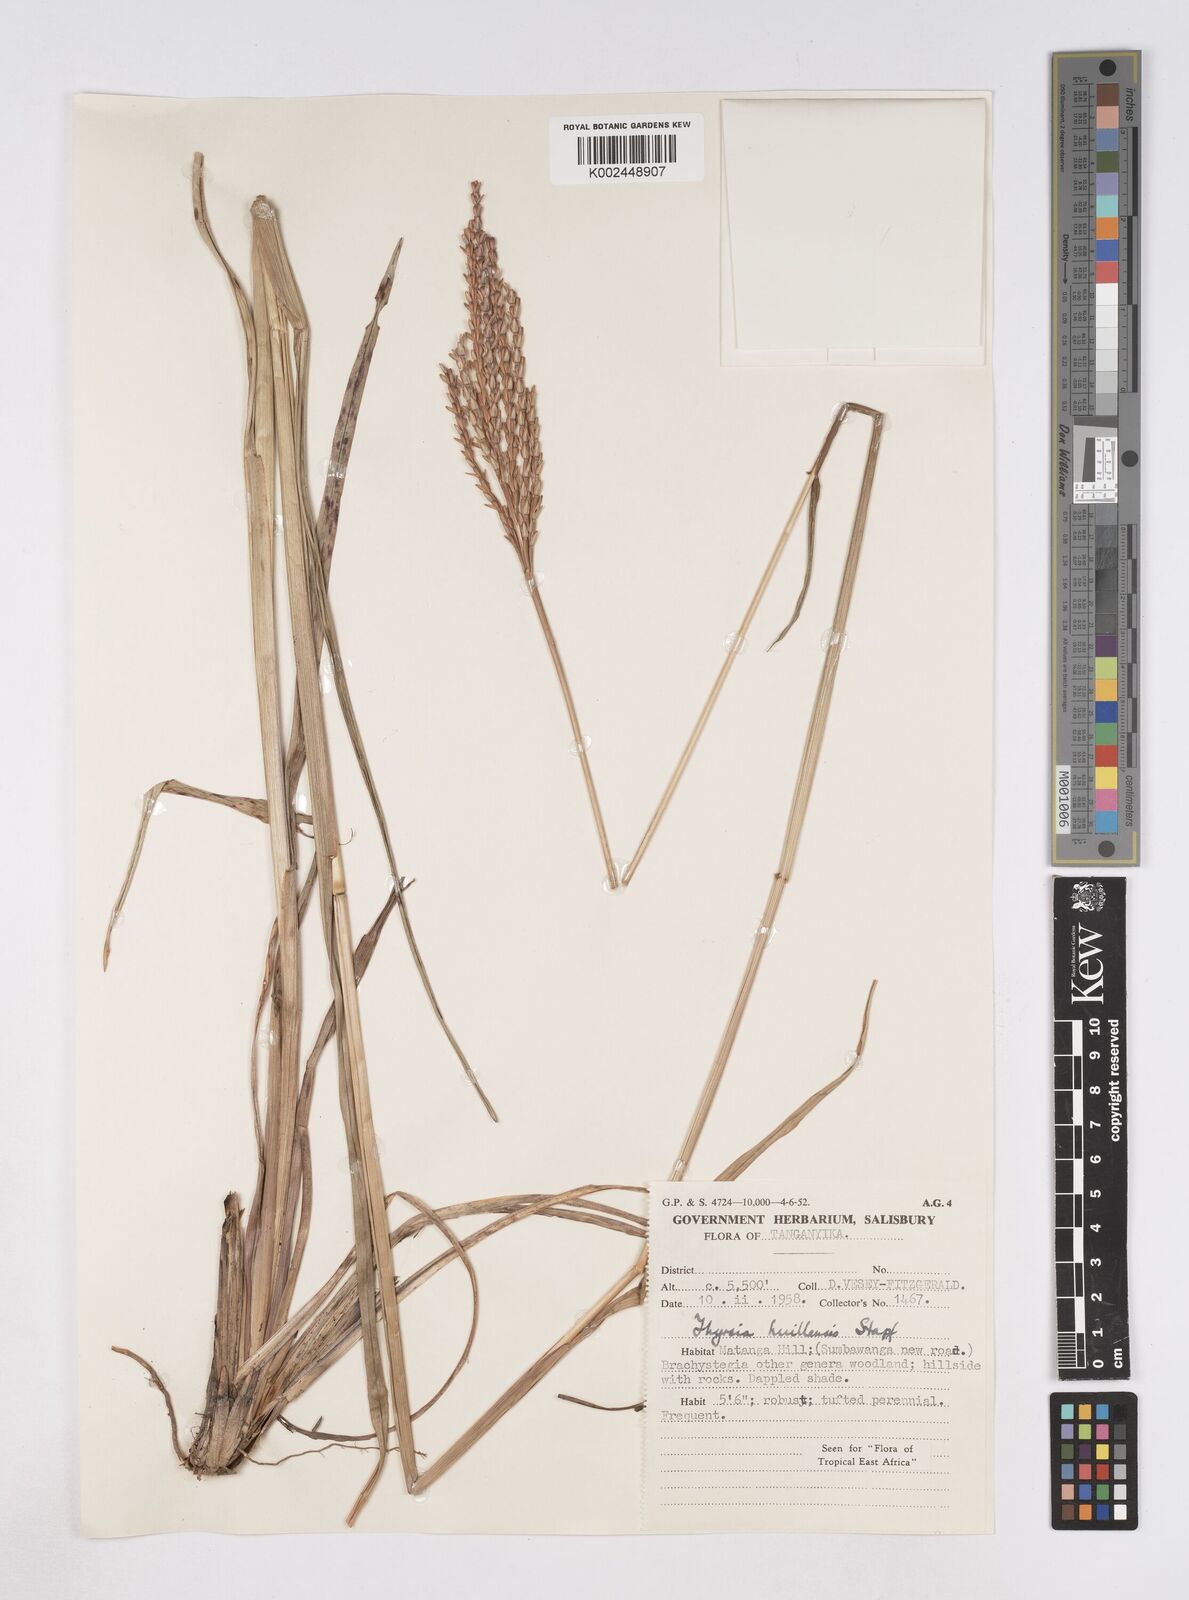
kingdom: Plantae
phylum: Tracheophyta
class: Liliopsida
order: Poales
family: Poaceae
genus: Thyrsia
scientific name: Thyrsia huillensis
